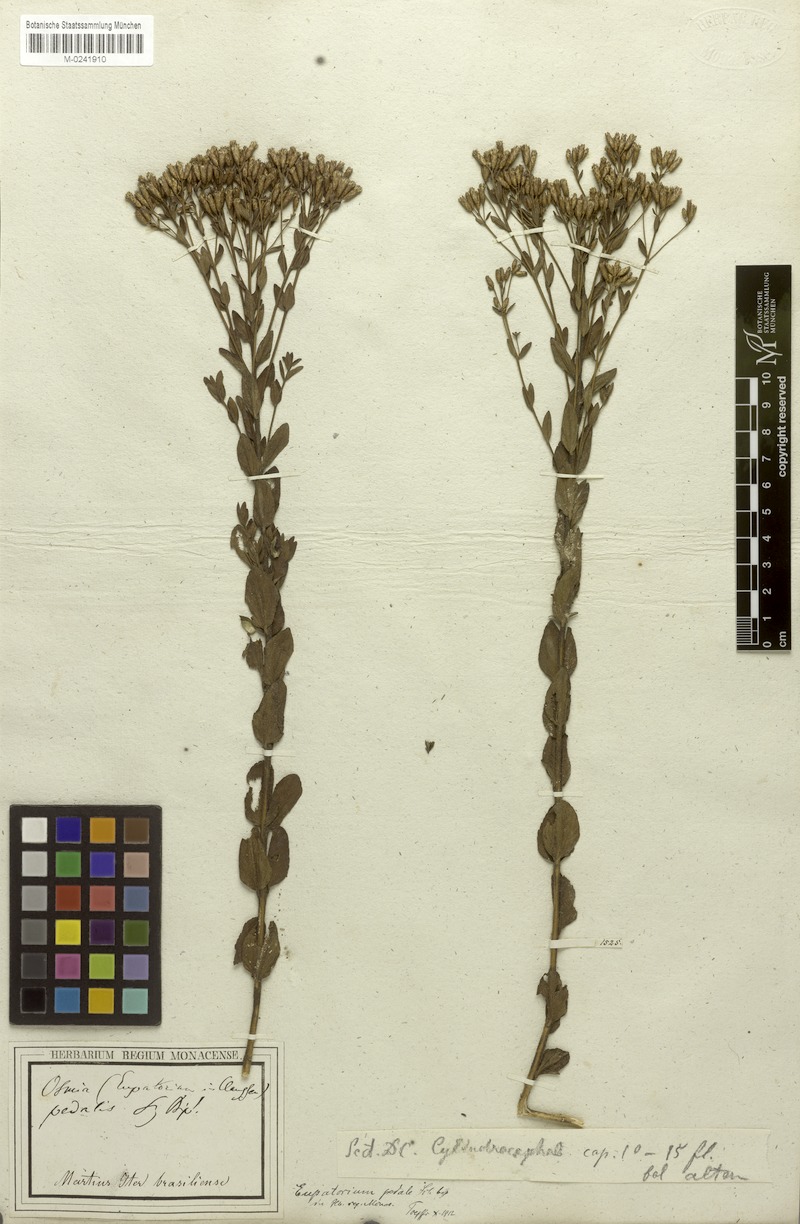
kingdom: Plantae
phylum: Tracheophyta
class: Magnoliopsida
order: Asterales
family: Asteraceae
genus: Chromolaena
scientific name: Chromolaena pedalis
